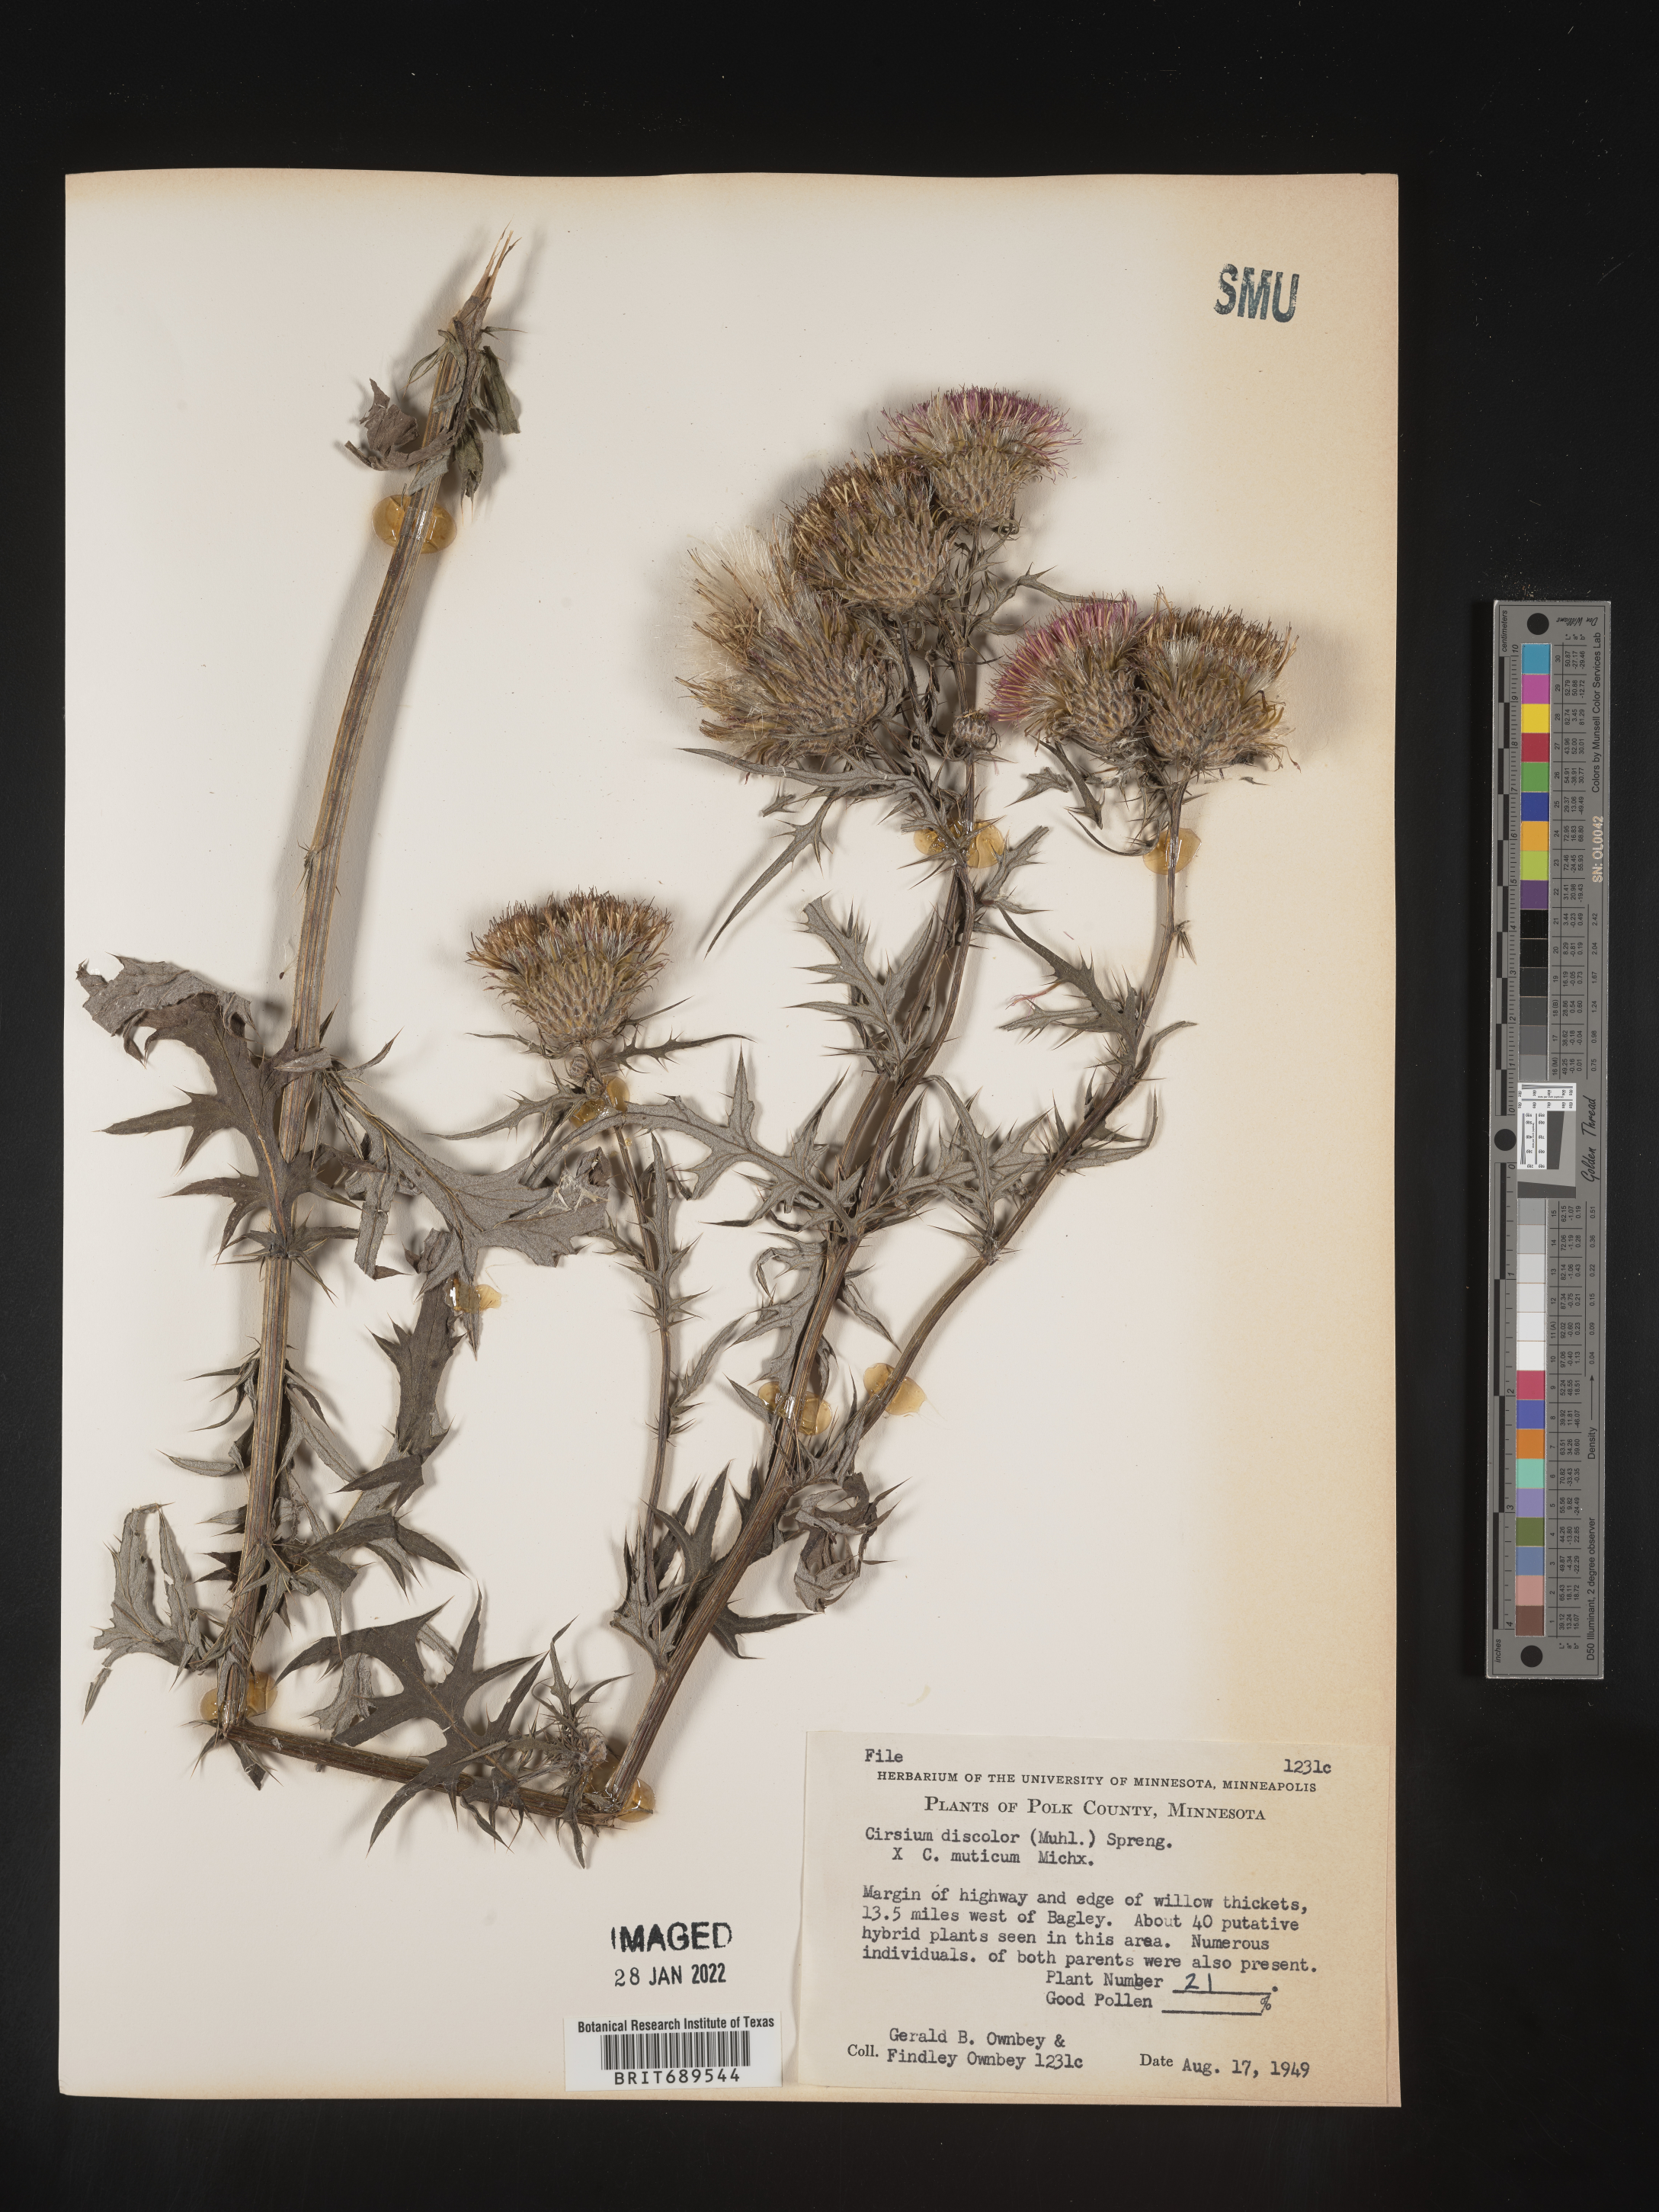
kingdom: Plantae
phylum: Tracheophyta
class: Magnoliopsida
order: Asterales
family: Asteraceae
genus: Cirsium
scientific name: Cirsium discolor
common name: Field thistle
